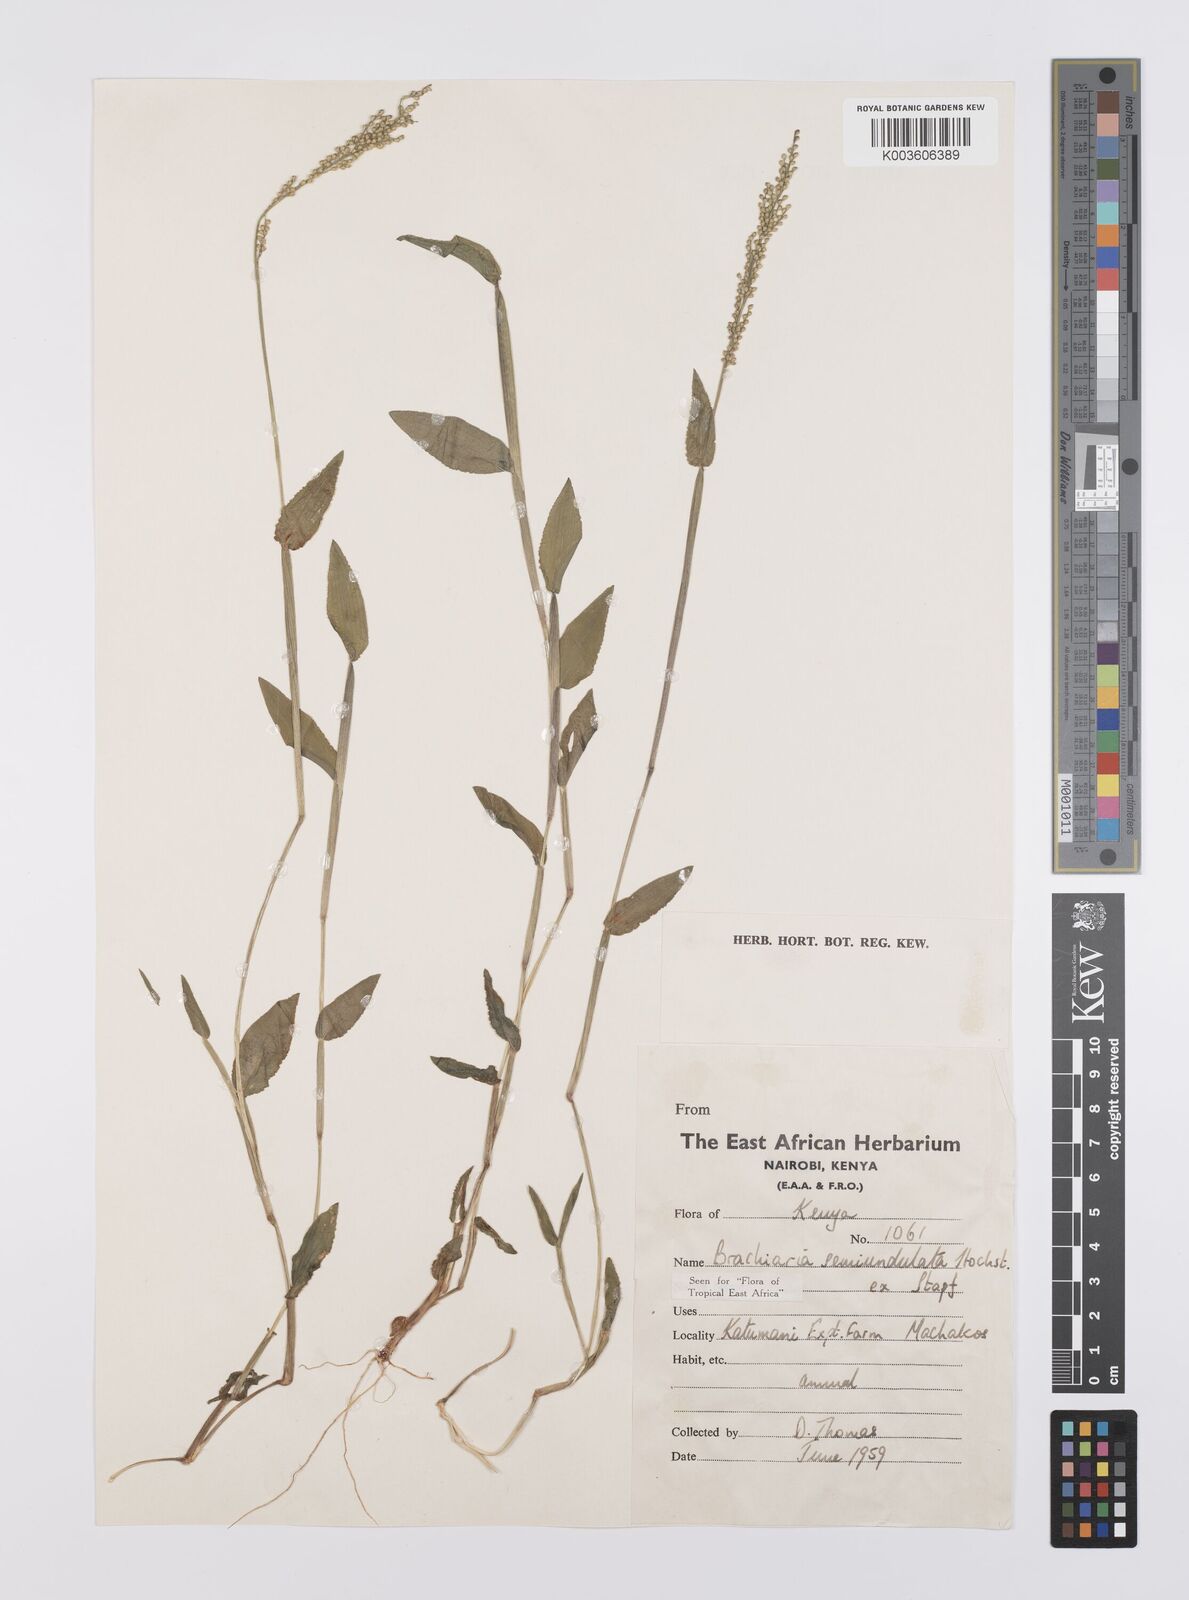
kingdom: Plantae
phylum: Tracheophyta
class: Liliopsida
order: Poales
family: Poaceae
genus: Urochloa
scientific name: Urochloa semiundulata
